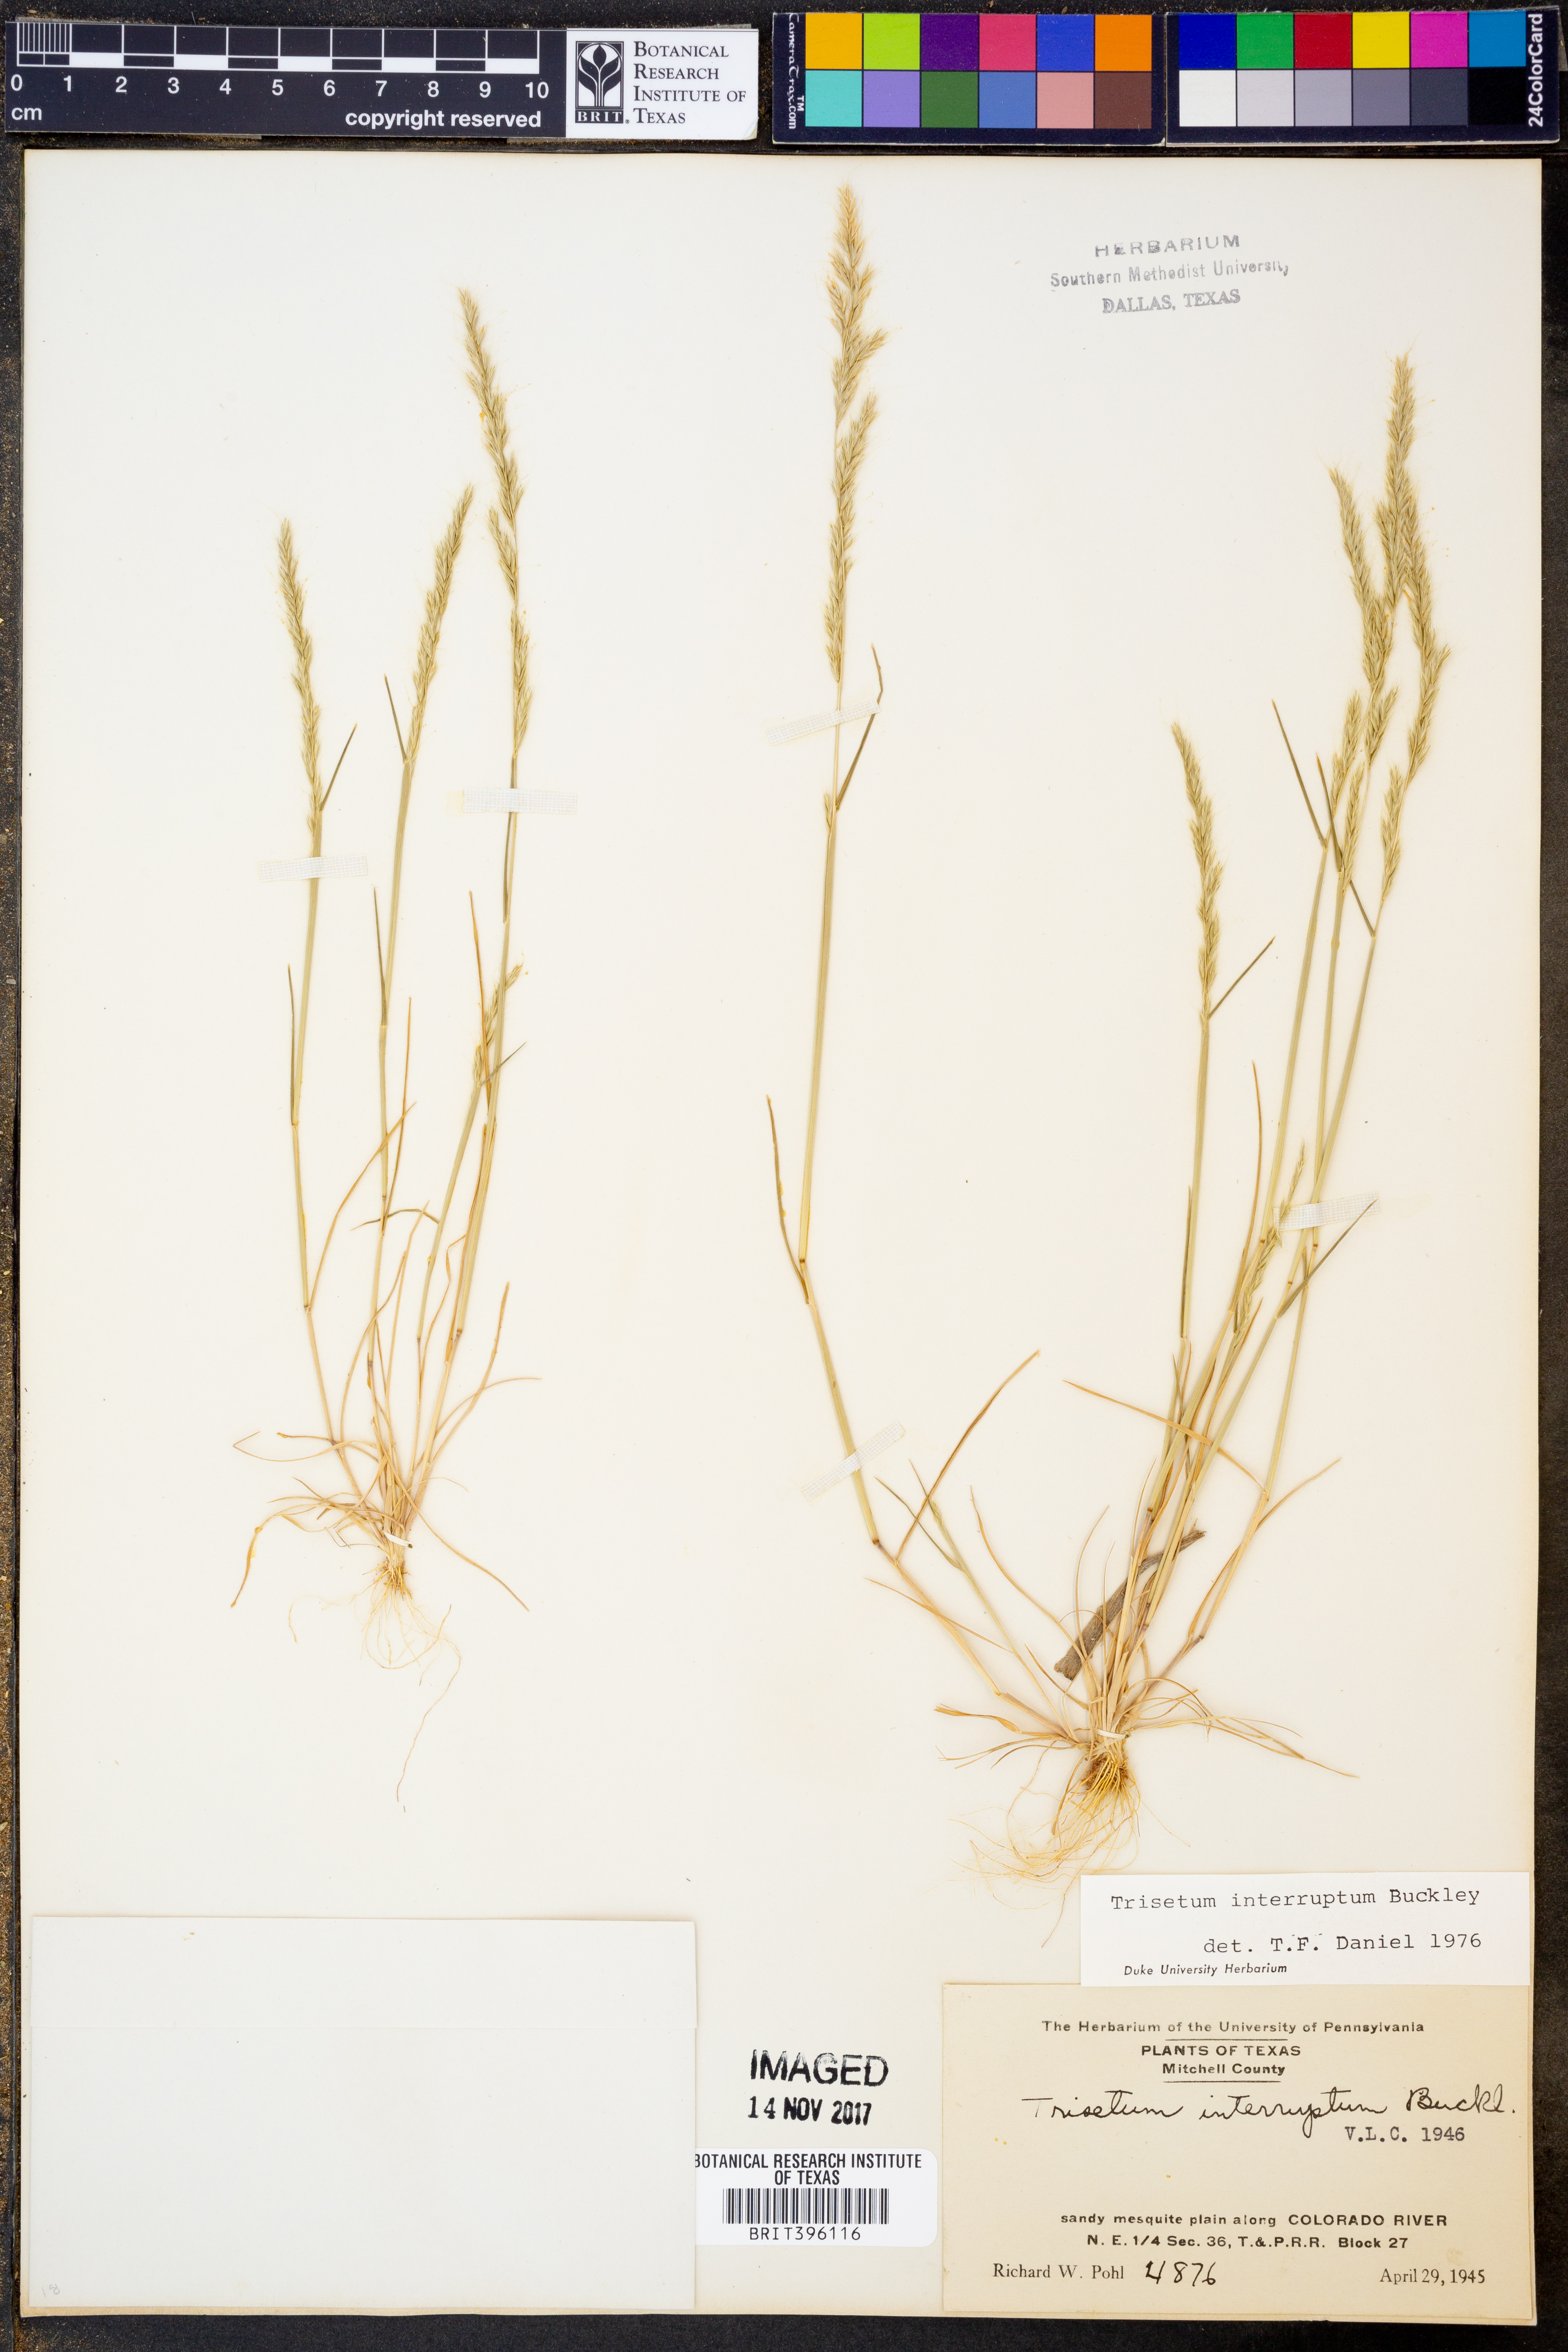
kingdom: Plantae
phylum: Tracheophyta
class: Liliopsida
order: Poales
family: Poaceae
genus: Sphenopholis
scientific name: Sphenopholis interrupta
